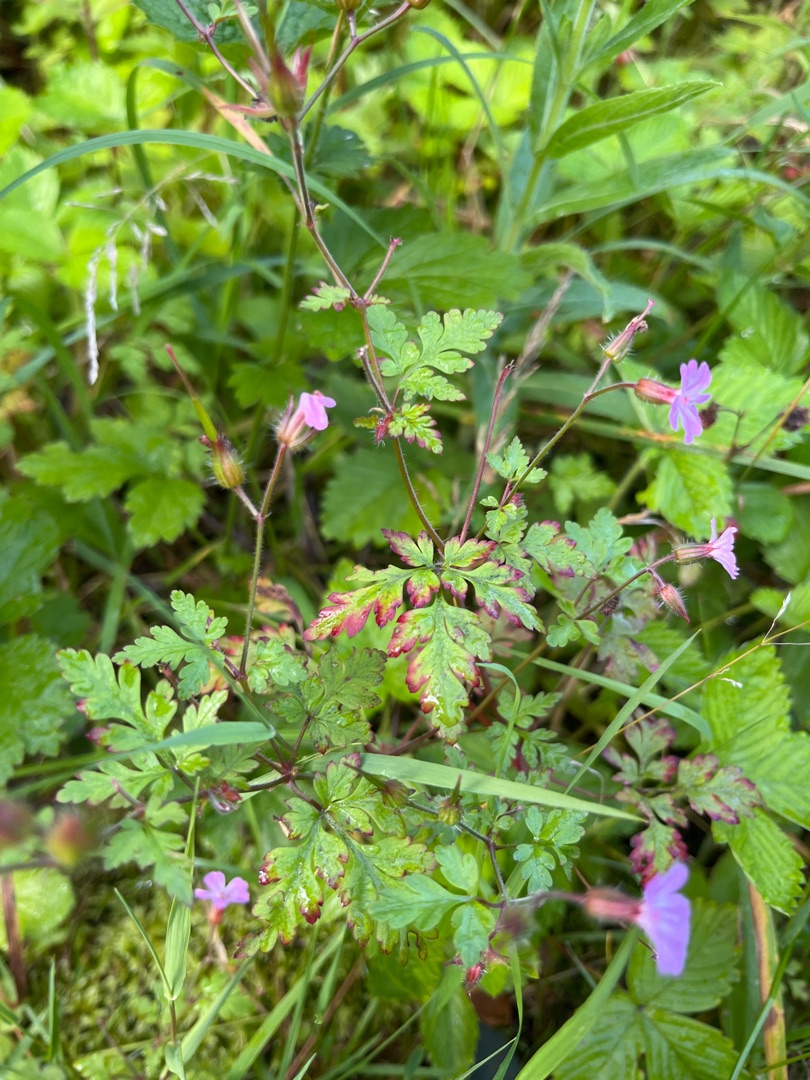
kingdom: Plantae
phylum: Tracheophyta
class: Magnoliopsida
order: Geraniales
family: Geraniaceae
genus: Geranium
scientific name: Geranium robertianum
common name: Stinkende storkenæb
